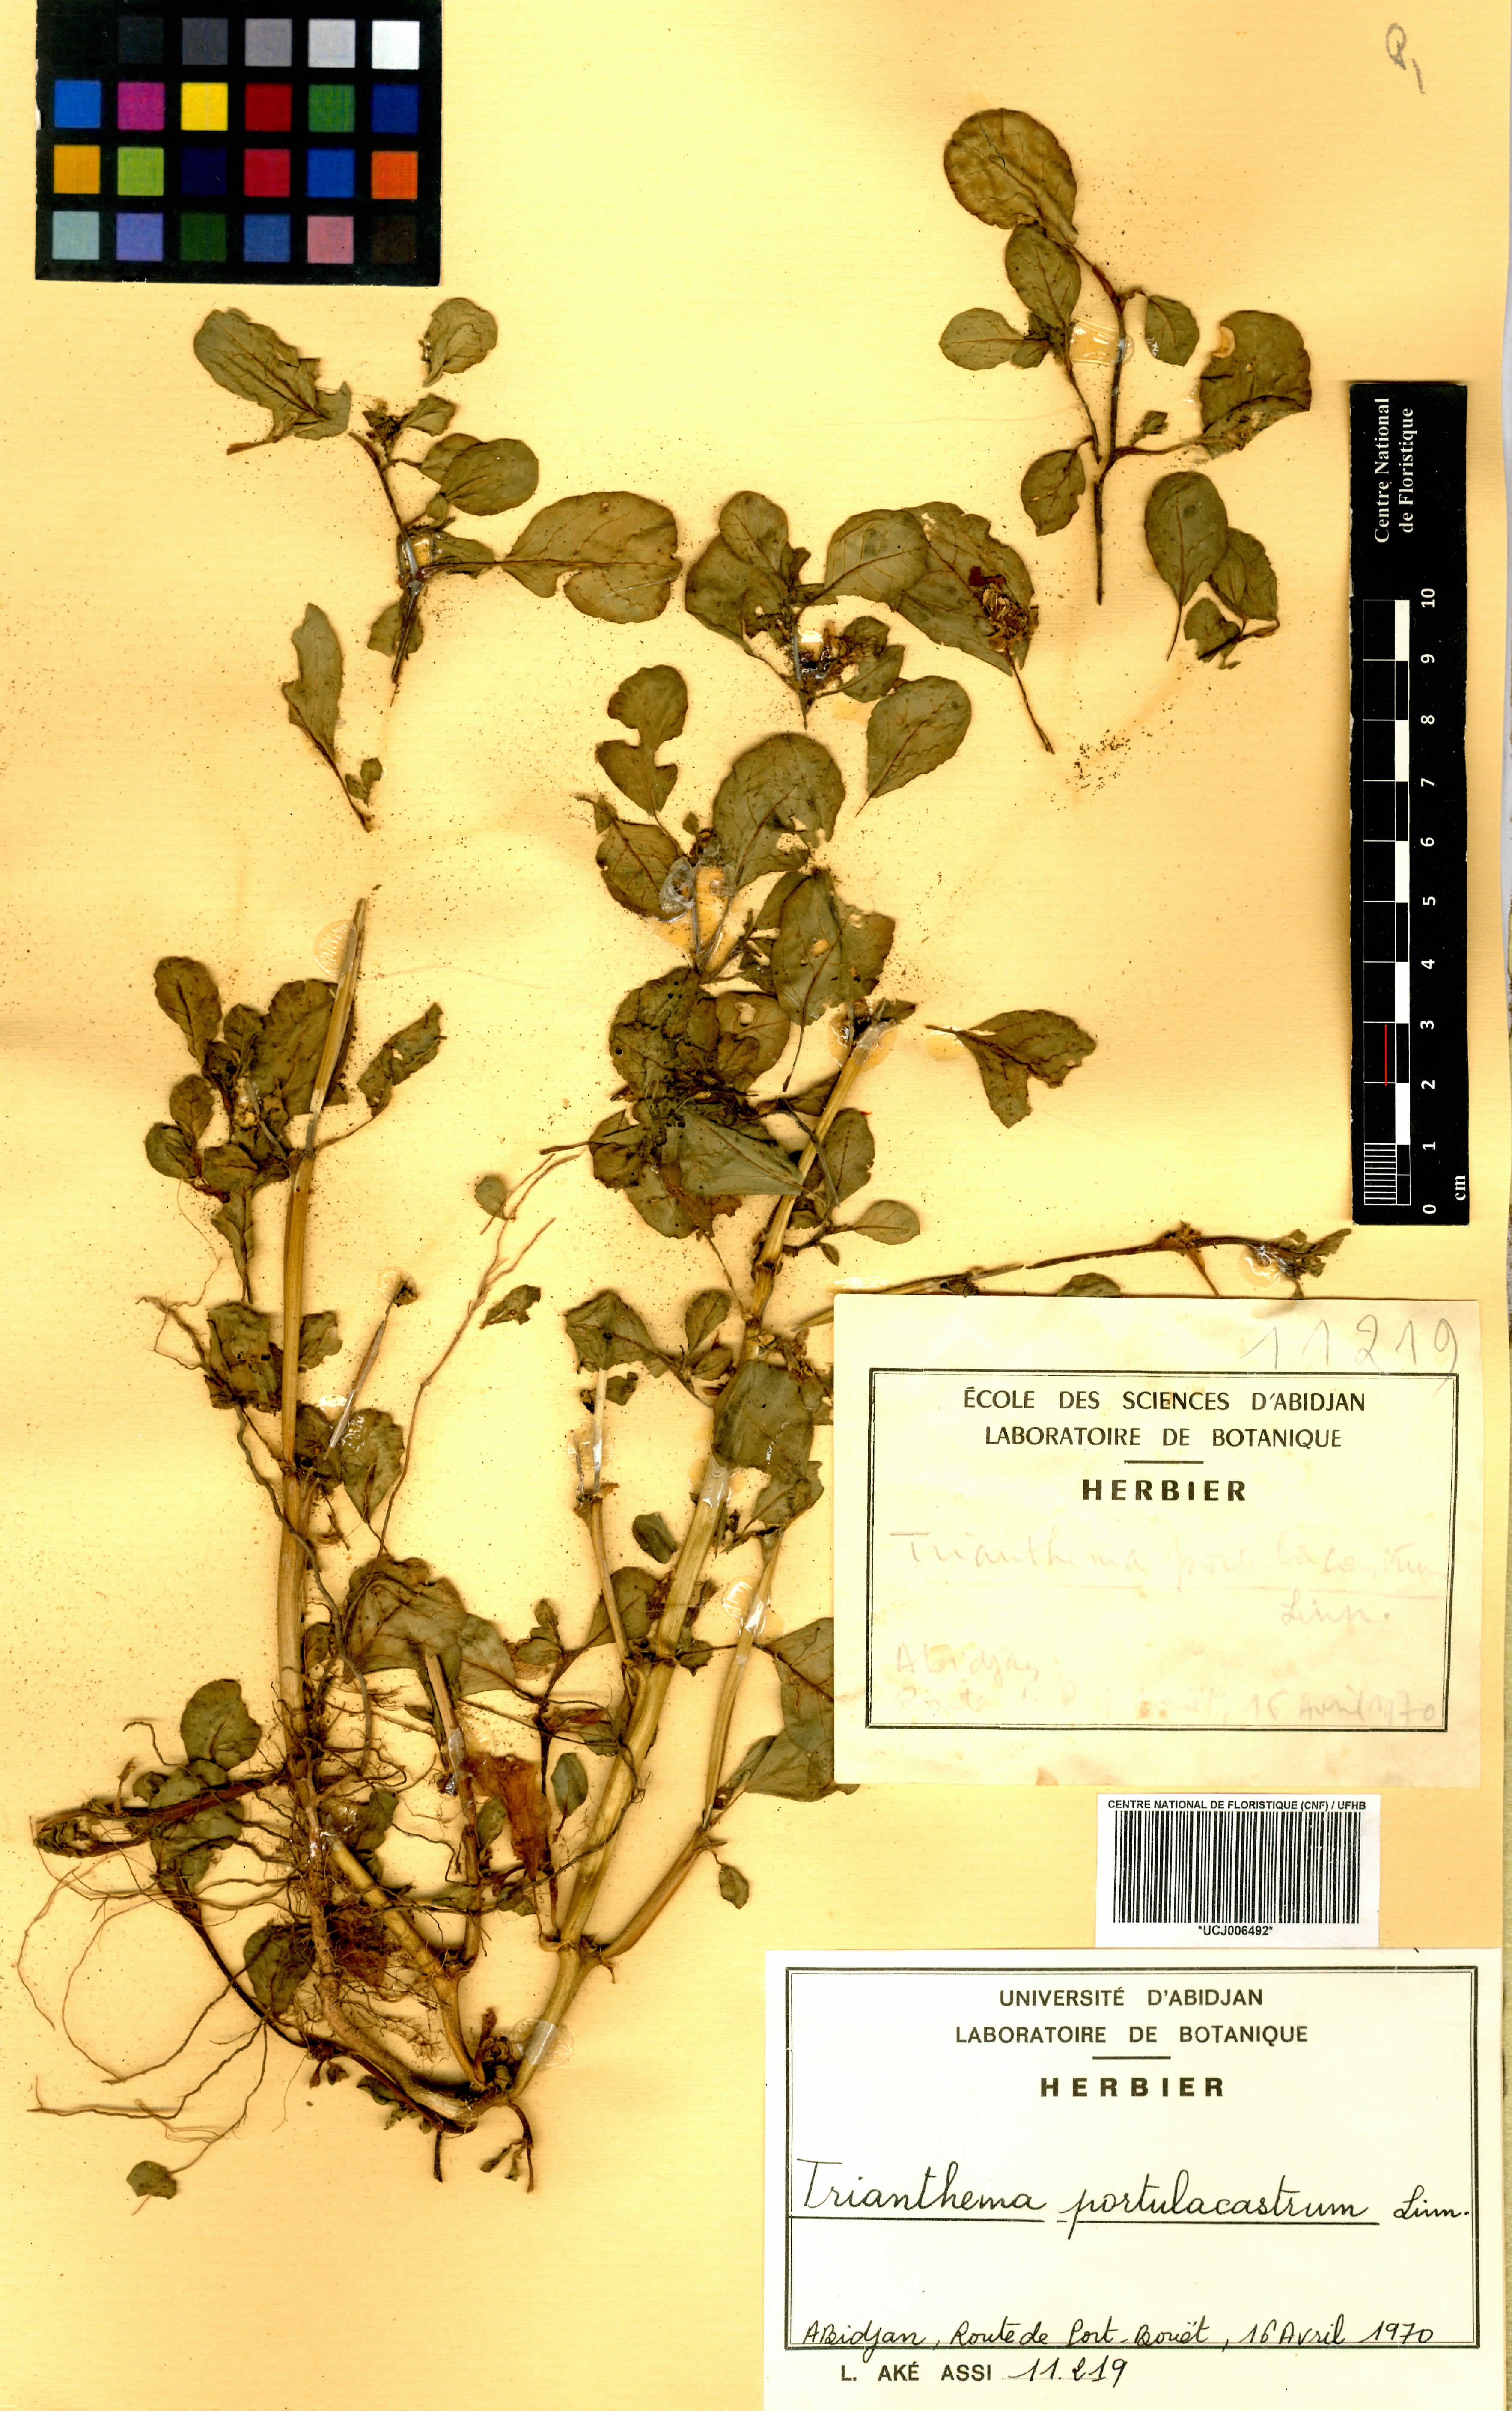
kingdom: Plantae
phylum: Tracheophyta
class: Magnoliopsida
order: Caryophyllales
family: Aizoaceae
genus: Trianthema
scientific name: Trianthema portulacastrum
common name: Desert horsepurslane
